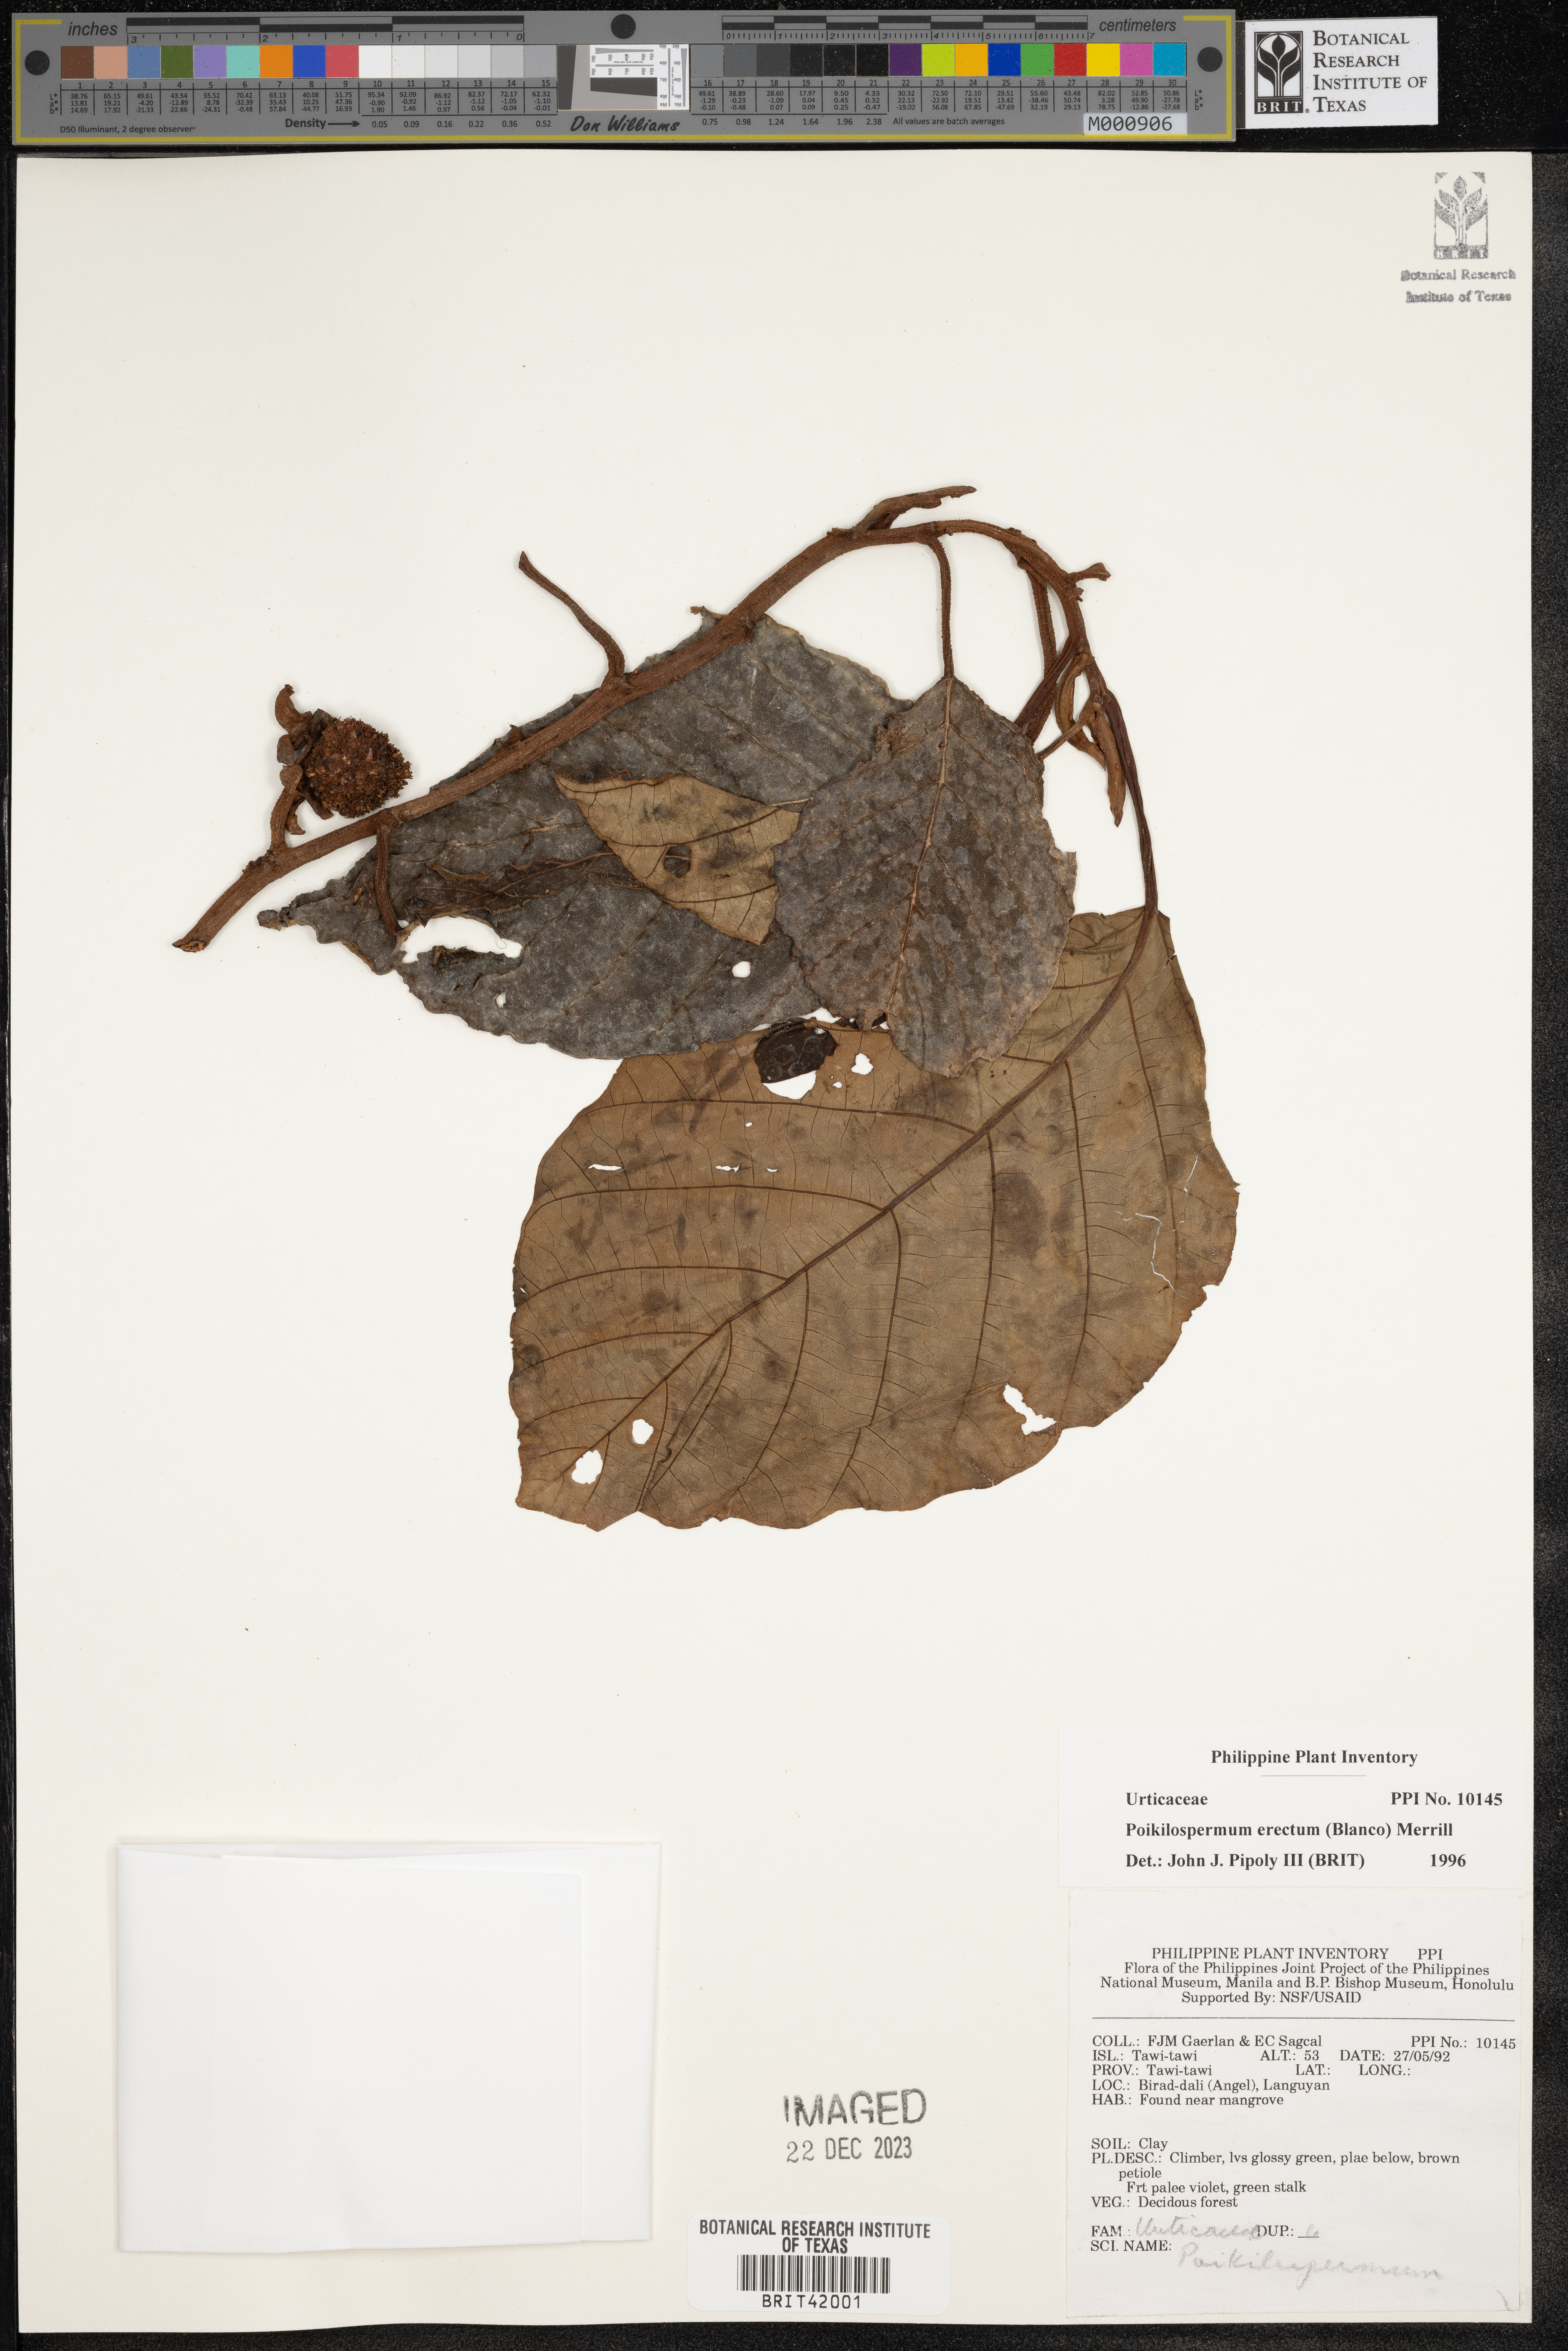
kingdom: Plantae
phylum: Tracheophyta
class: Magnoliopsida
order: Rosales
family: Urticaceae
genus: Poikilospermum
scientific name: Poikilospermum erectum
